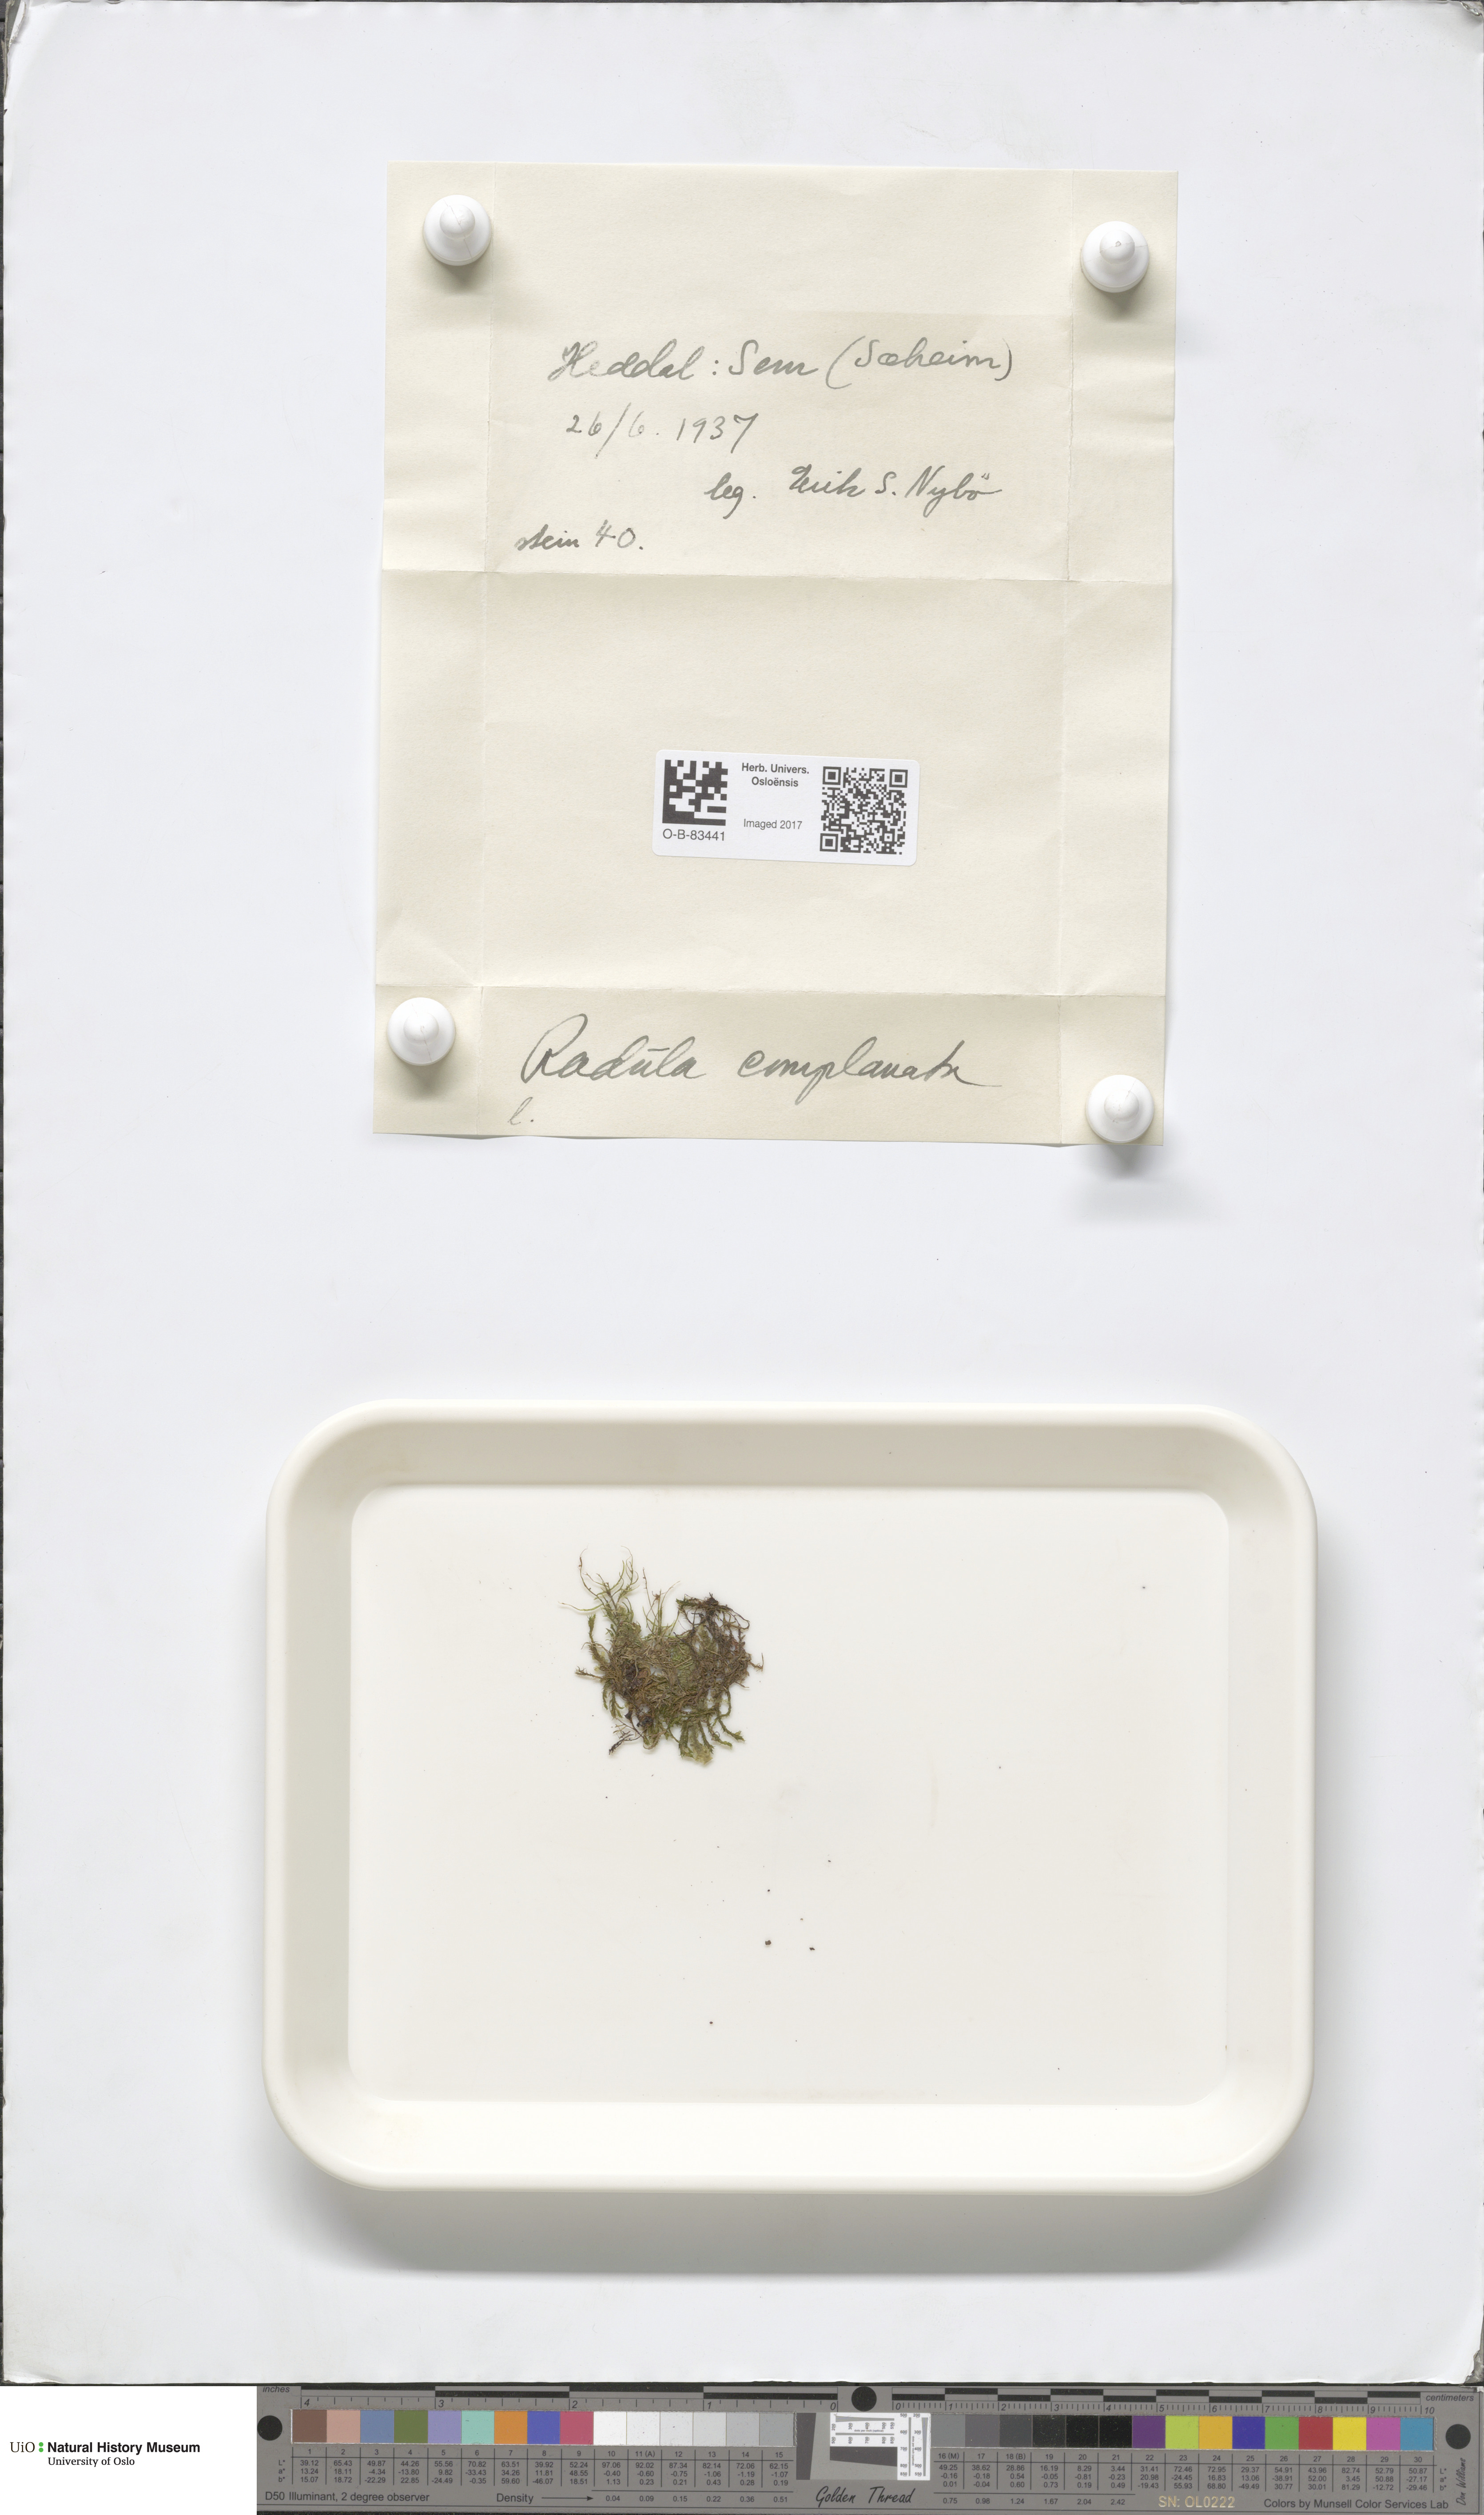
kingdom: Plantae
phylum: Marchantiophyta
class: Jungermanniopsida
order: Porellales
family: Radulaceae
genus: Radula
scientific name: Radula complanata
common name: Flat-leaved scalewort
